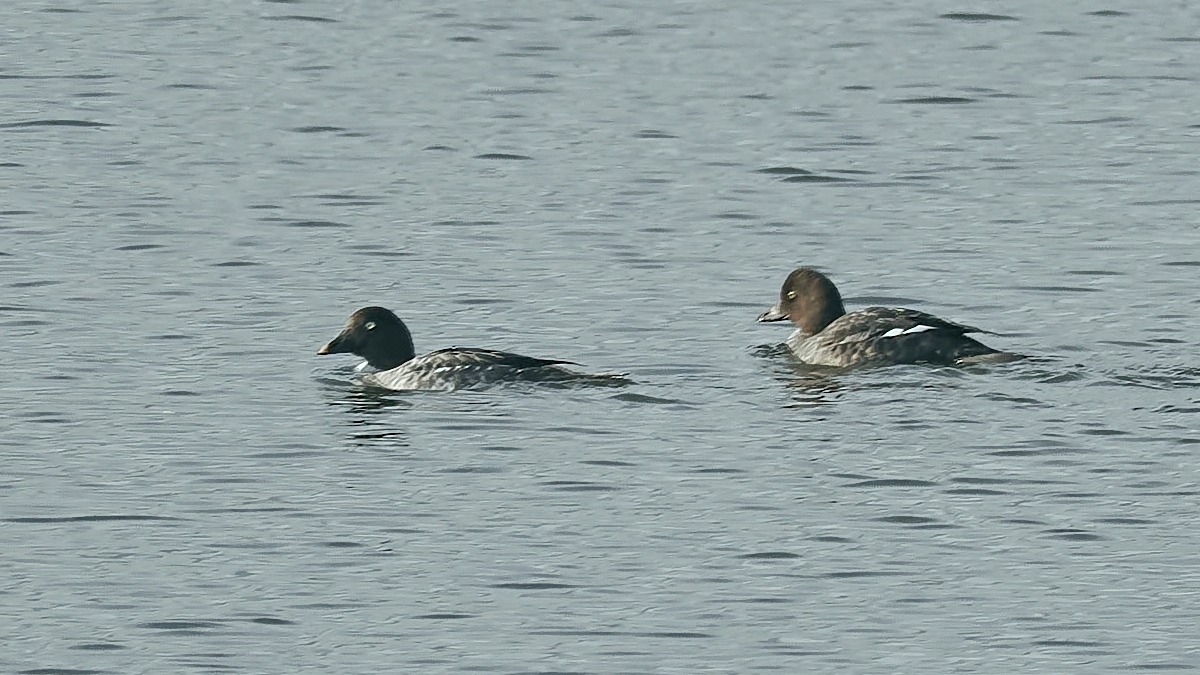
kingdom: Animalia
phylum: Chordata
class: Aves
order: Anseriformes
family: Anatidae
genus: Bucephala
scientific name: Bucephala clangula
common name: Hvinand
